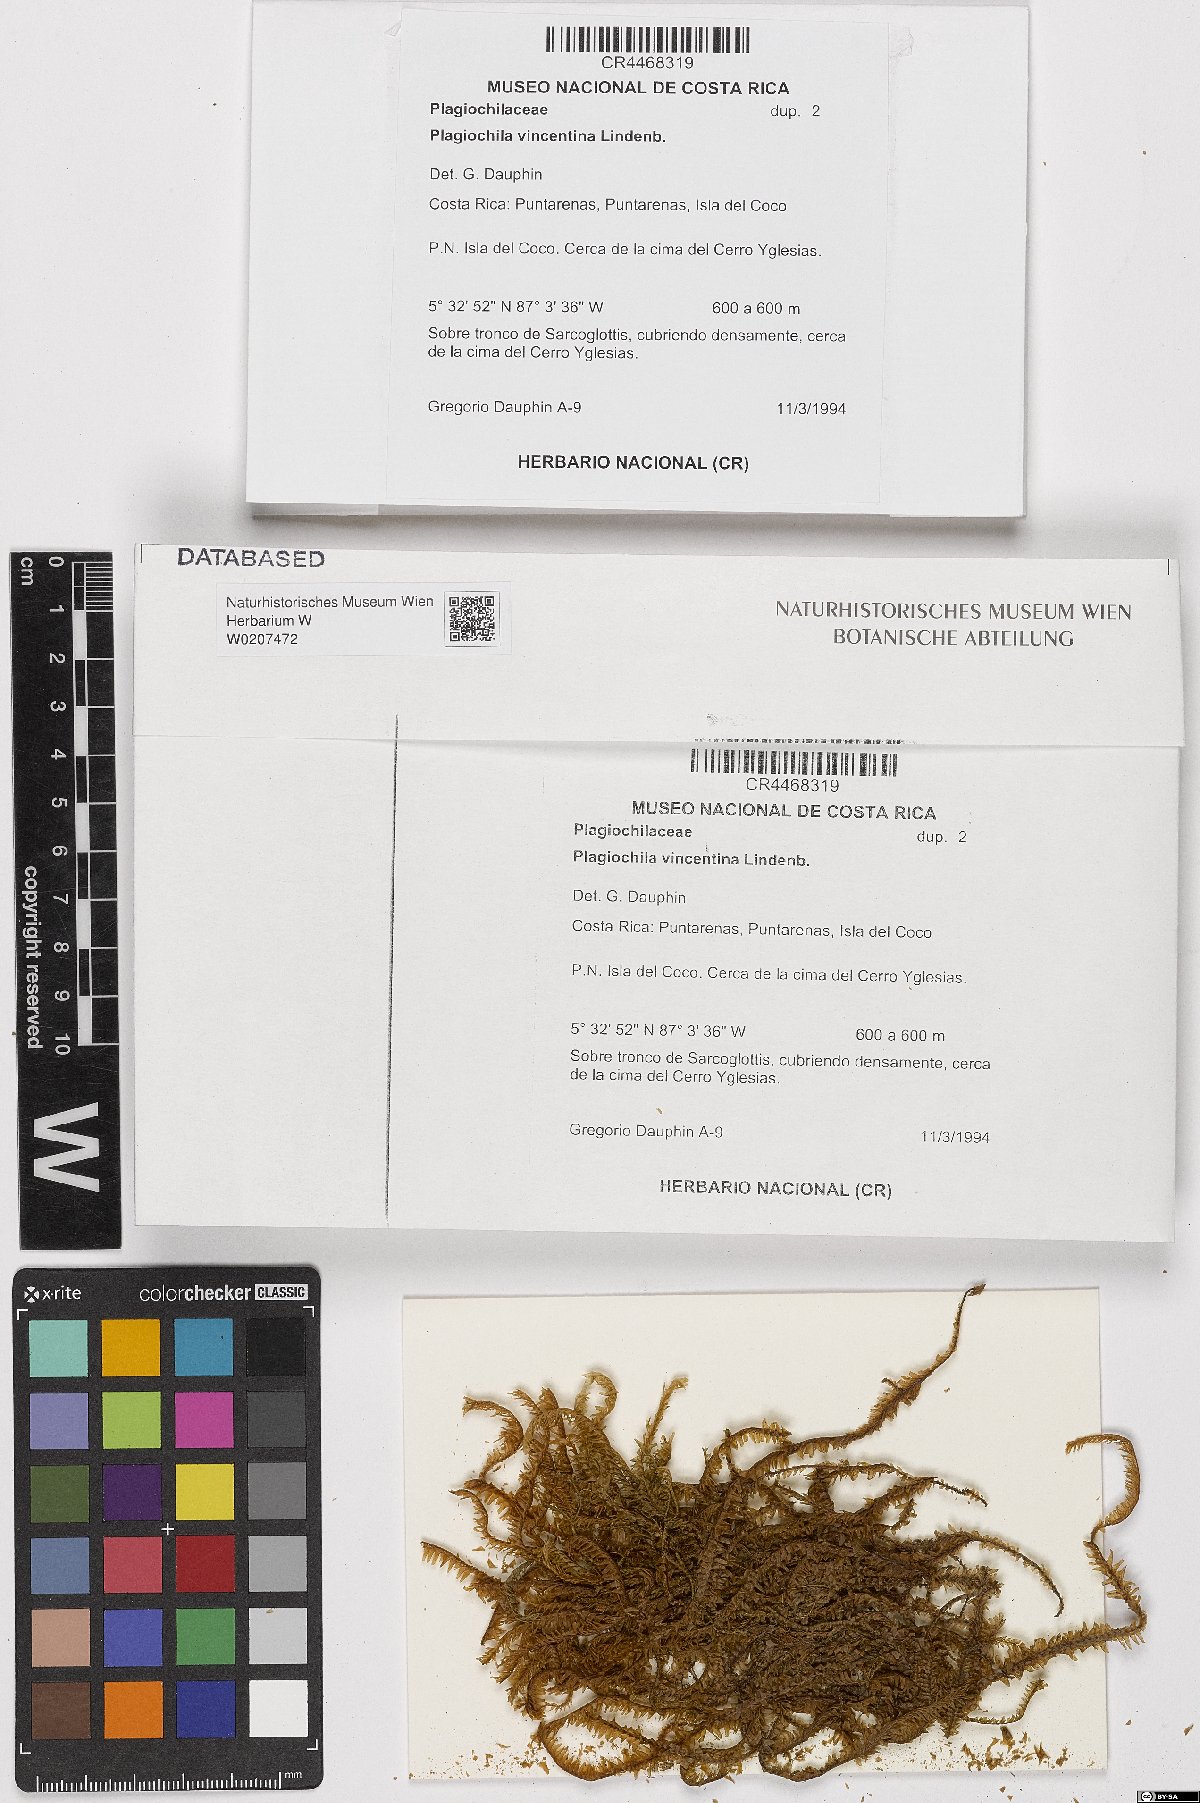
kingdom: Plantae
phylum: Marchantiophyta
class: Jungermanniopsida
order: Jungermanniales
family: Plagiochilaceae
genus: Plagiochila
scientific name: Plagiochila vincentina
